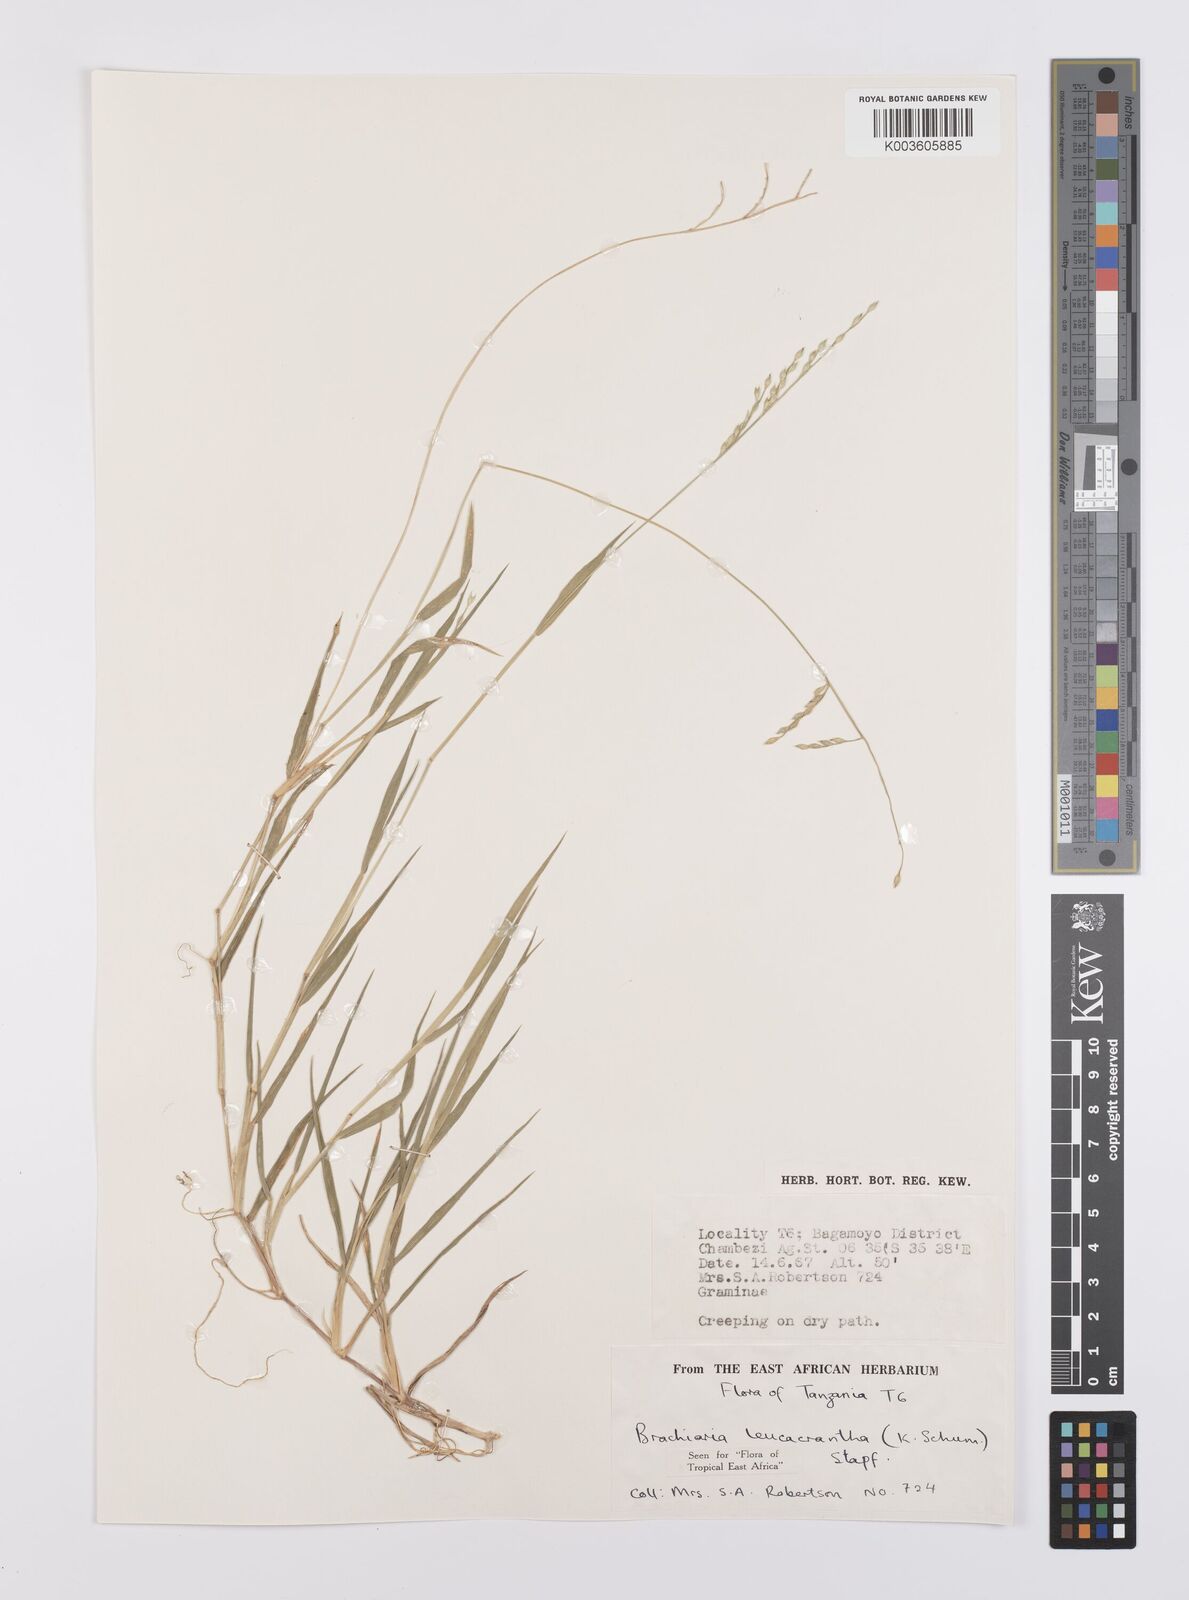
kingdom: Plantae
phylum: Tracheophyta
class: Liliopsida
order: Poales
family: Poaceae
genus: Urochloa
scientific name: Urochloa xantholeuca
